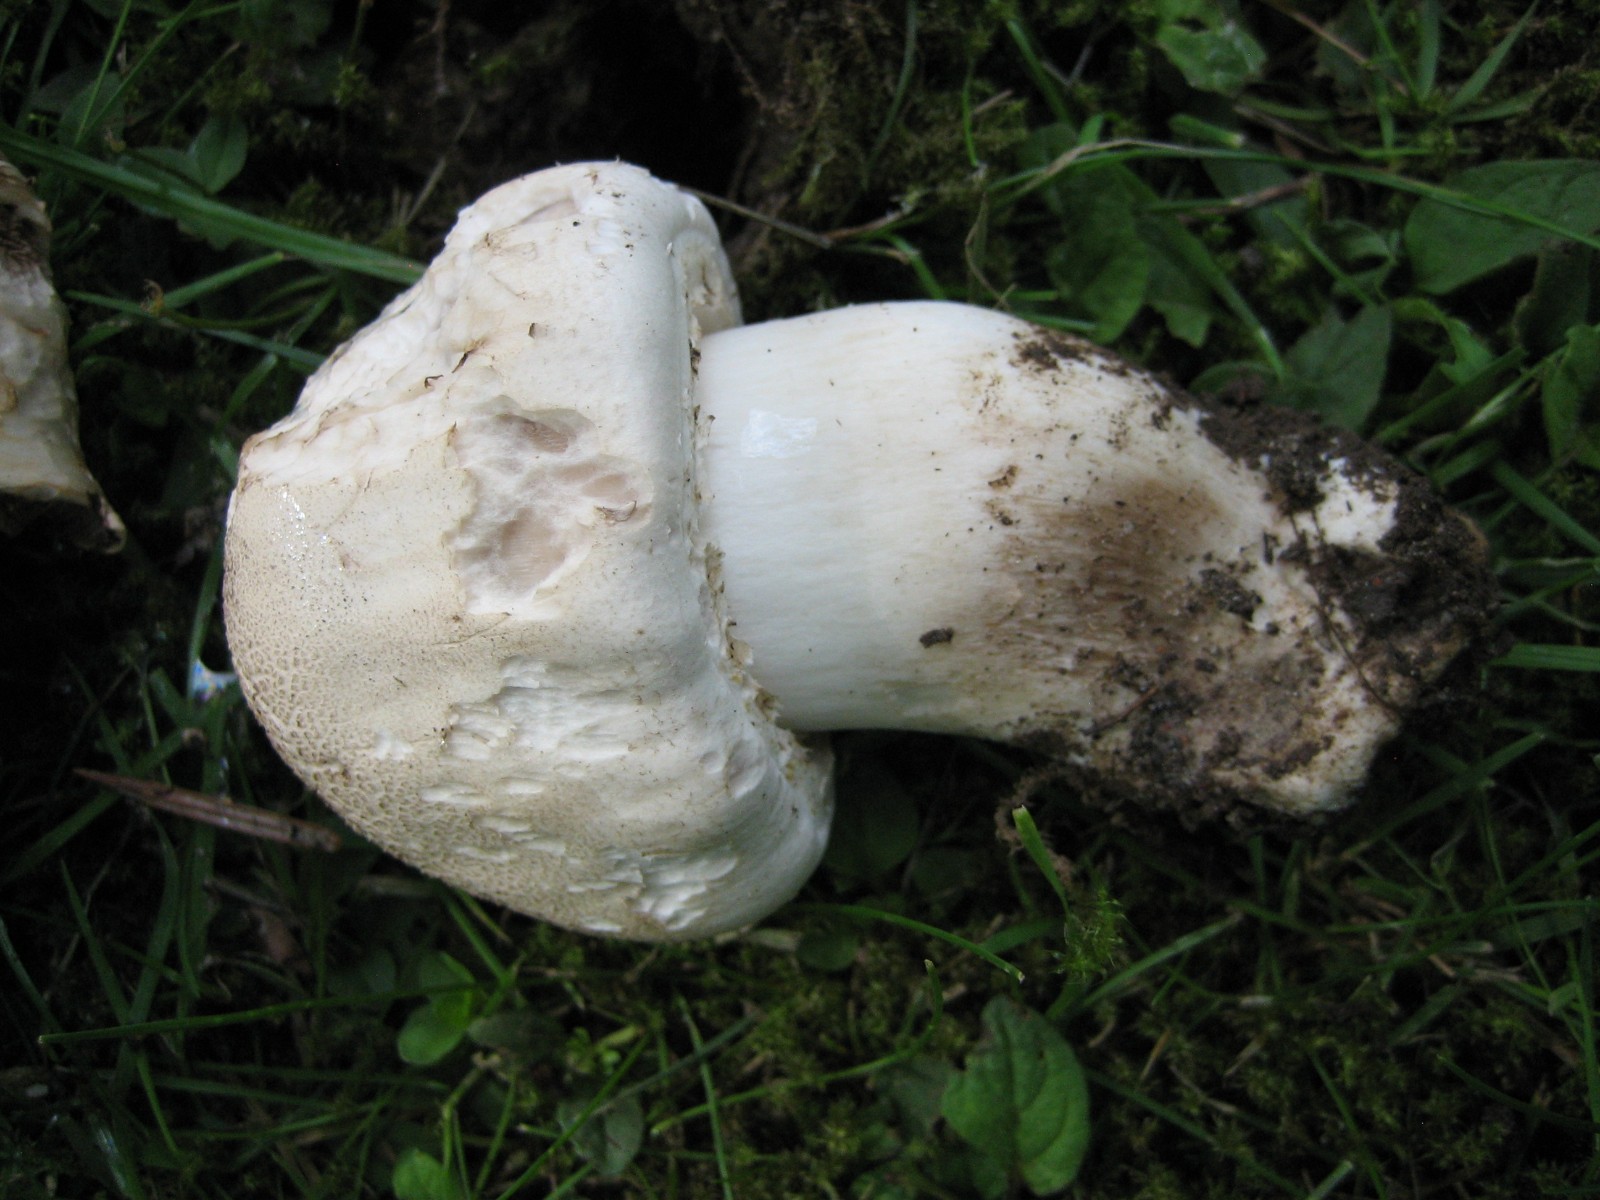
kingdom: Fungi
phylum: Basidiomycota
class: Agaricomycetes
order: Agaricales
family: Agaricaceae
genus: Agaricus
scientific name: Agaricus xanthodermus
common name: karbol-champignon
